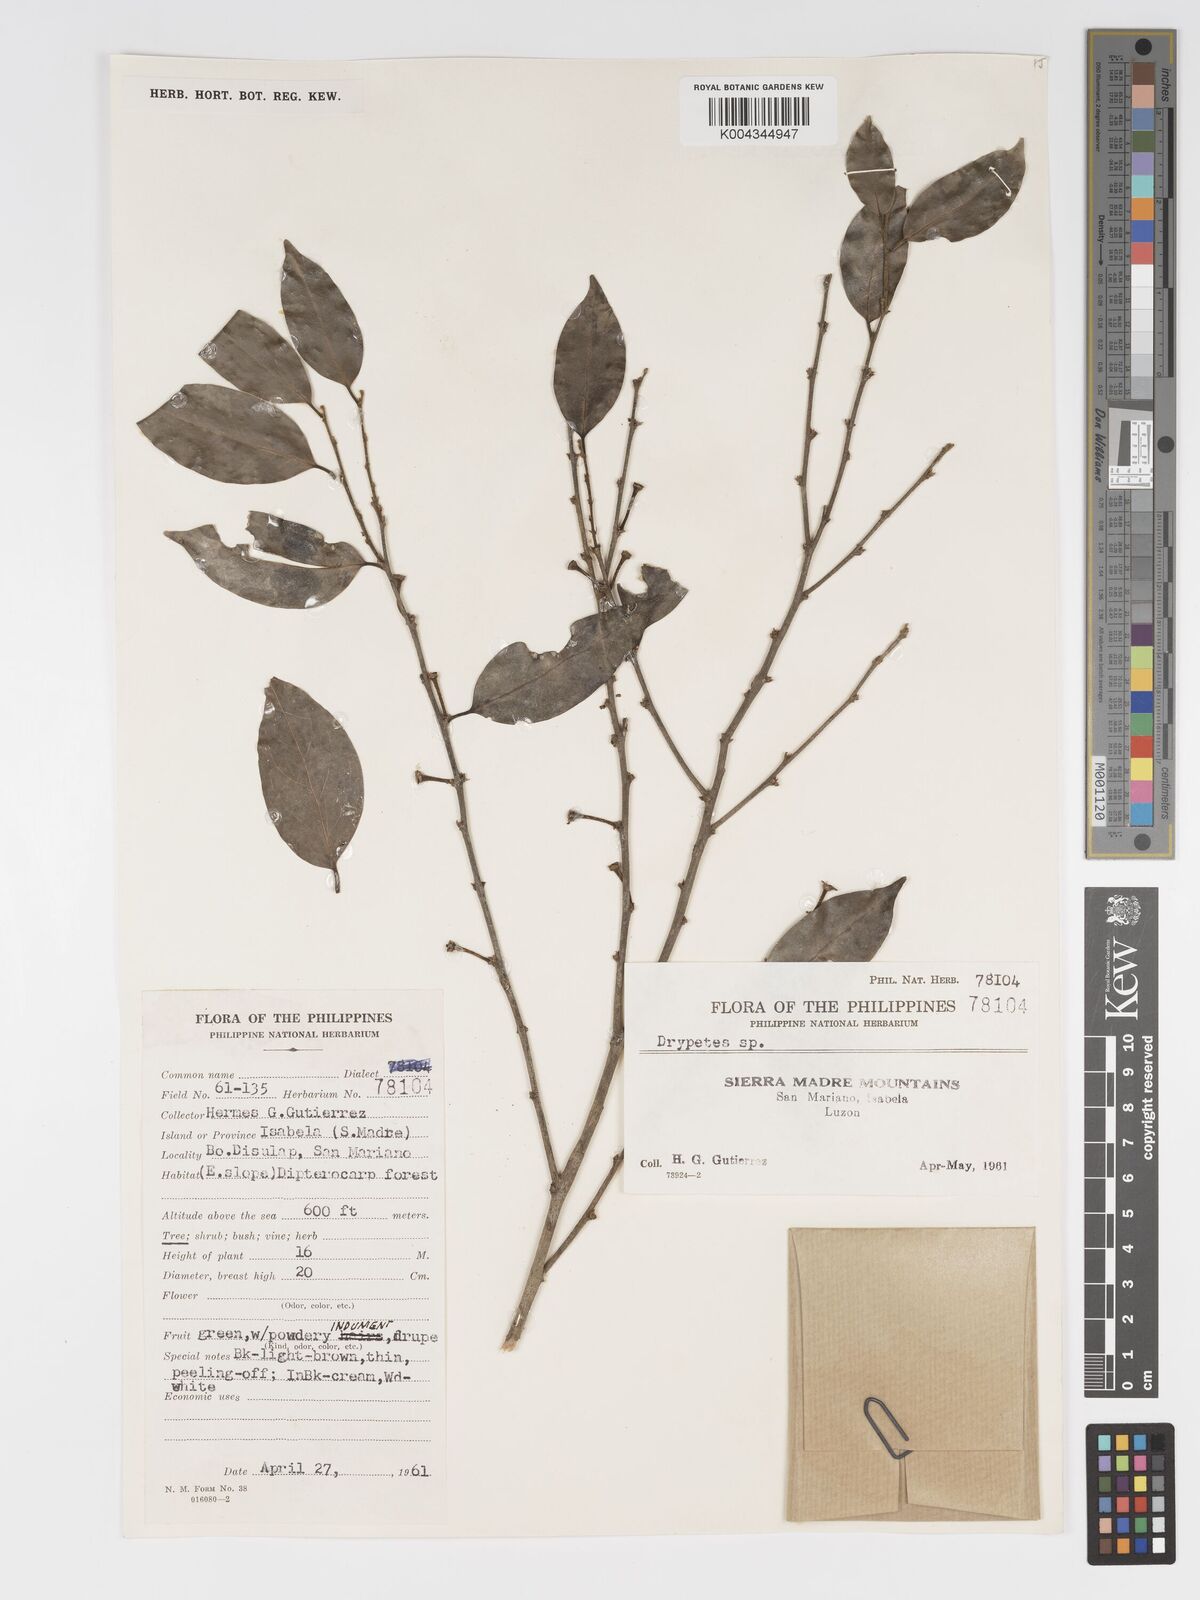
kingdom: Plantae
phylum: Tracheophyta
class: Magnoliopsida
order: Malpighiales
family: Putranjivaceae
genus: Drypetes
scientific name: Drypetes microphylla
